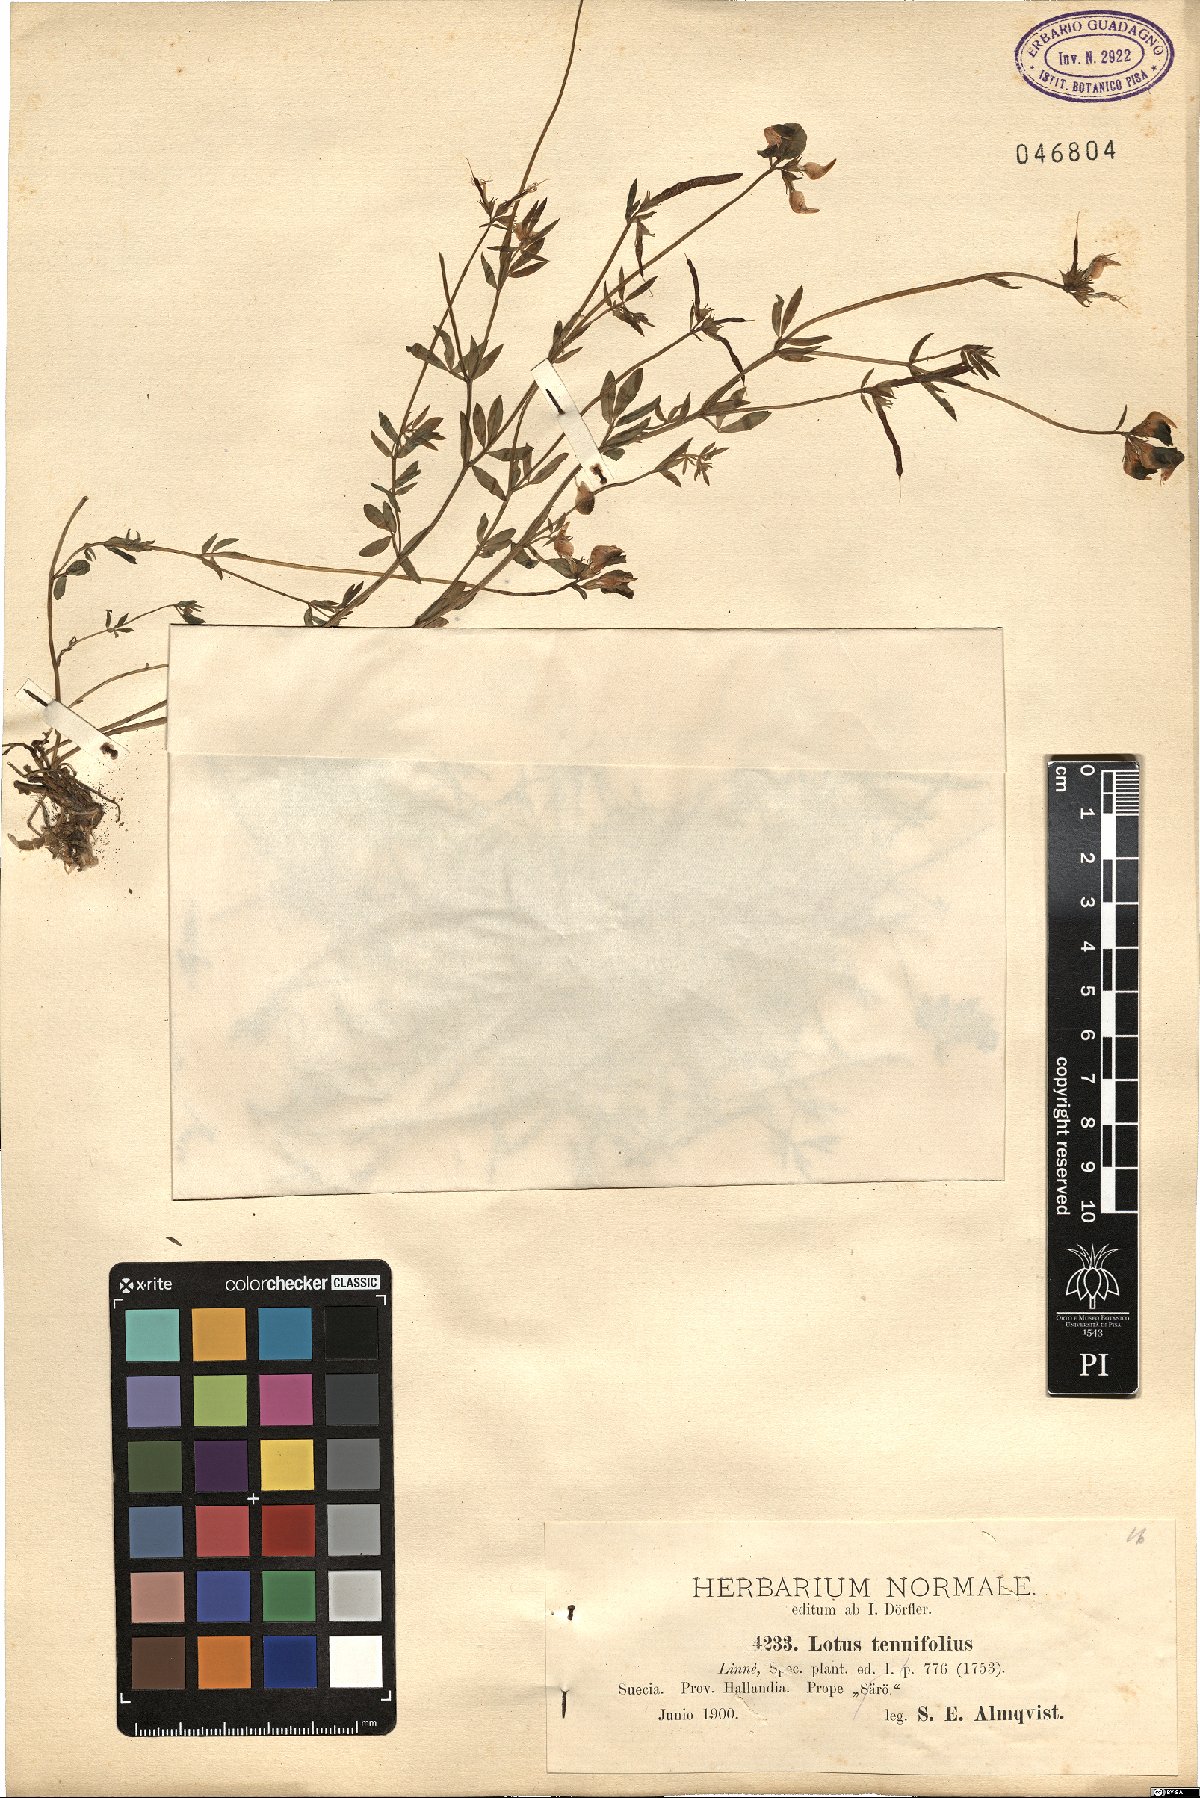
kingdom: Plantae
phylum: Tracheophyta
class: Magnoliopsida
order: Fabales
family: Fabaceae
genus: Lotus
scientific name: Lotus corniculatus
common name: Common bird's-foot-trefoil
